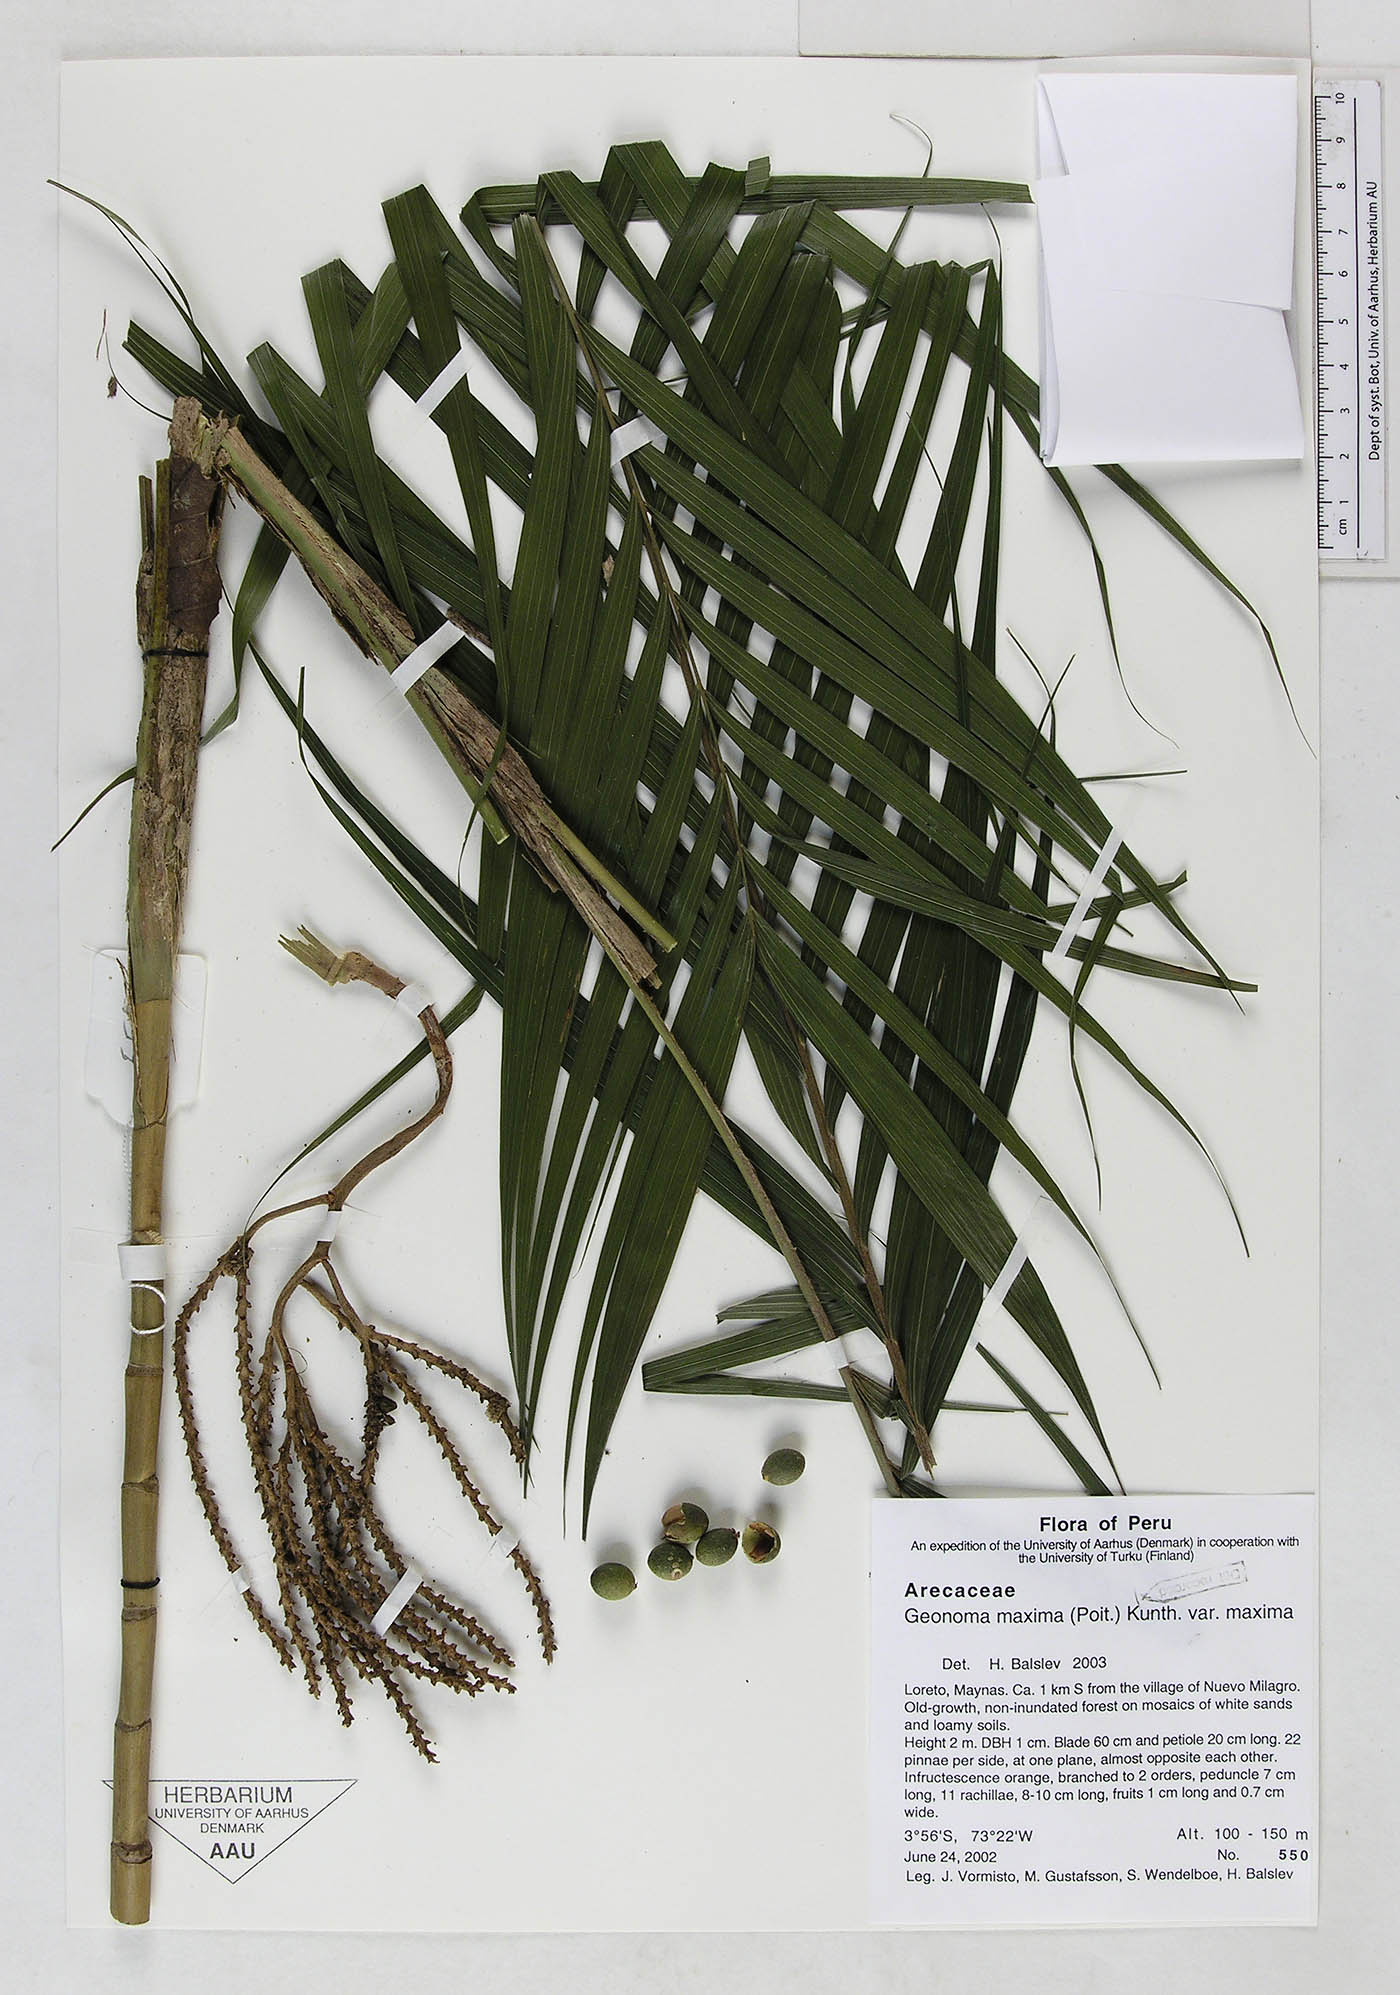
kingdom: Plantae
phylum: Tracheophyta
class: Liliopsida
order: Arecales
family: Arecaceae
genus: Geonoma
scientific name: Geonoma maxima
